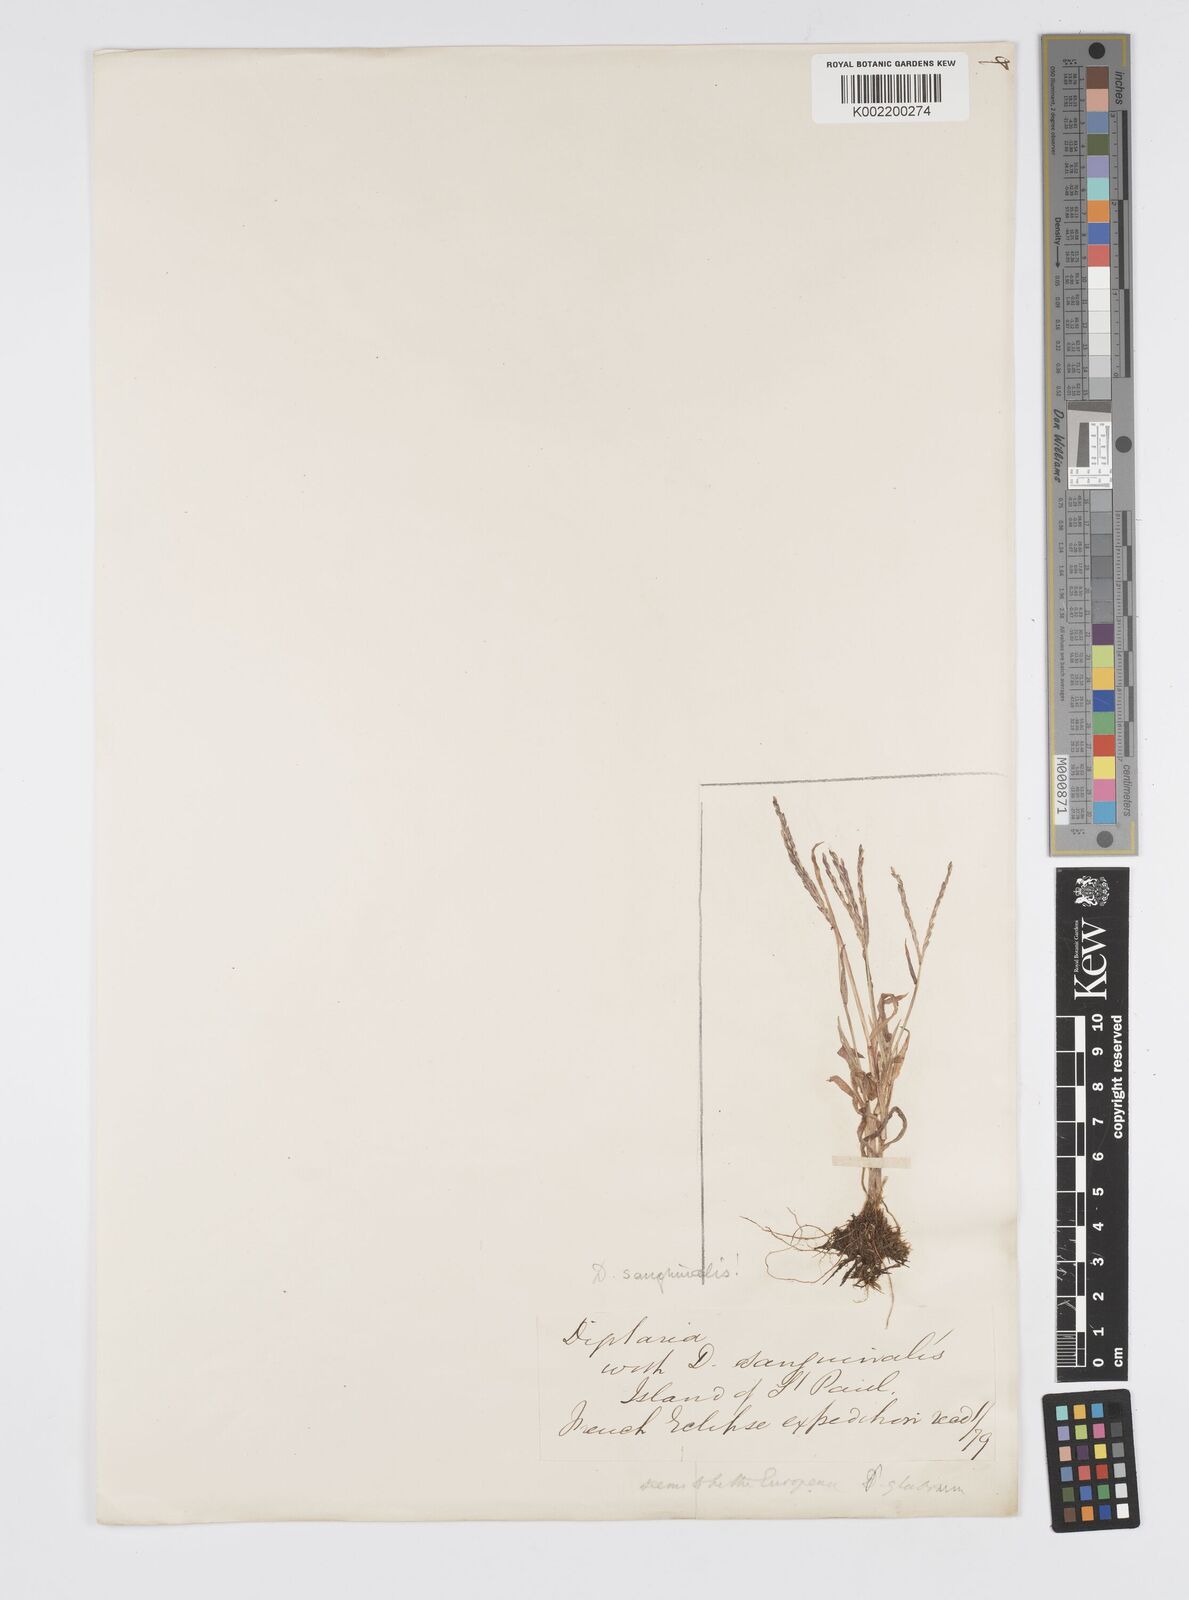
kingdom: Plantae
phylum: Tracheophyta
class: Liliopsida
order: Poales
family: Poaceae
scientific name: Poaceae
